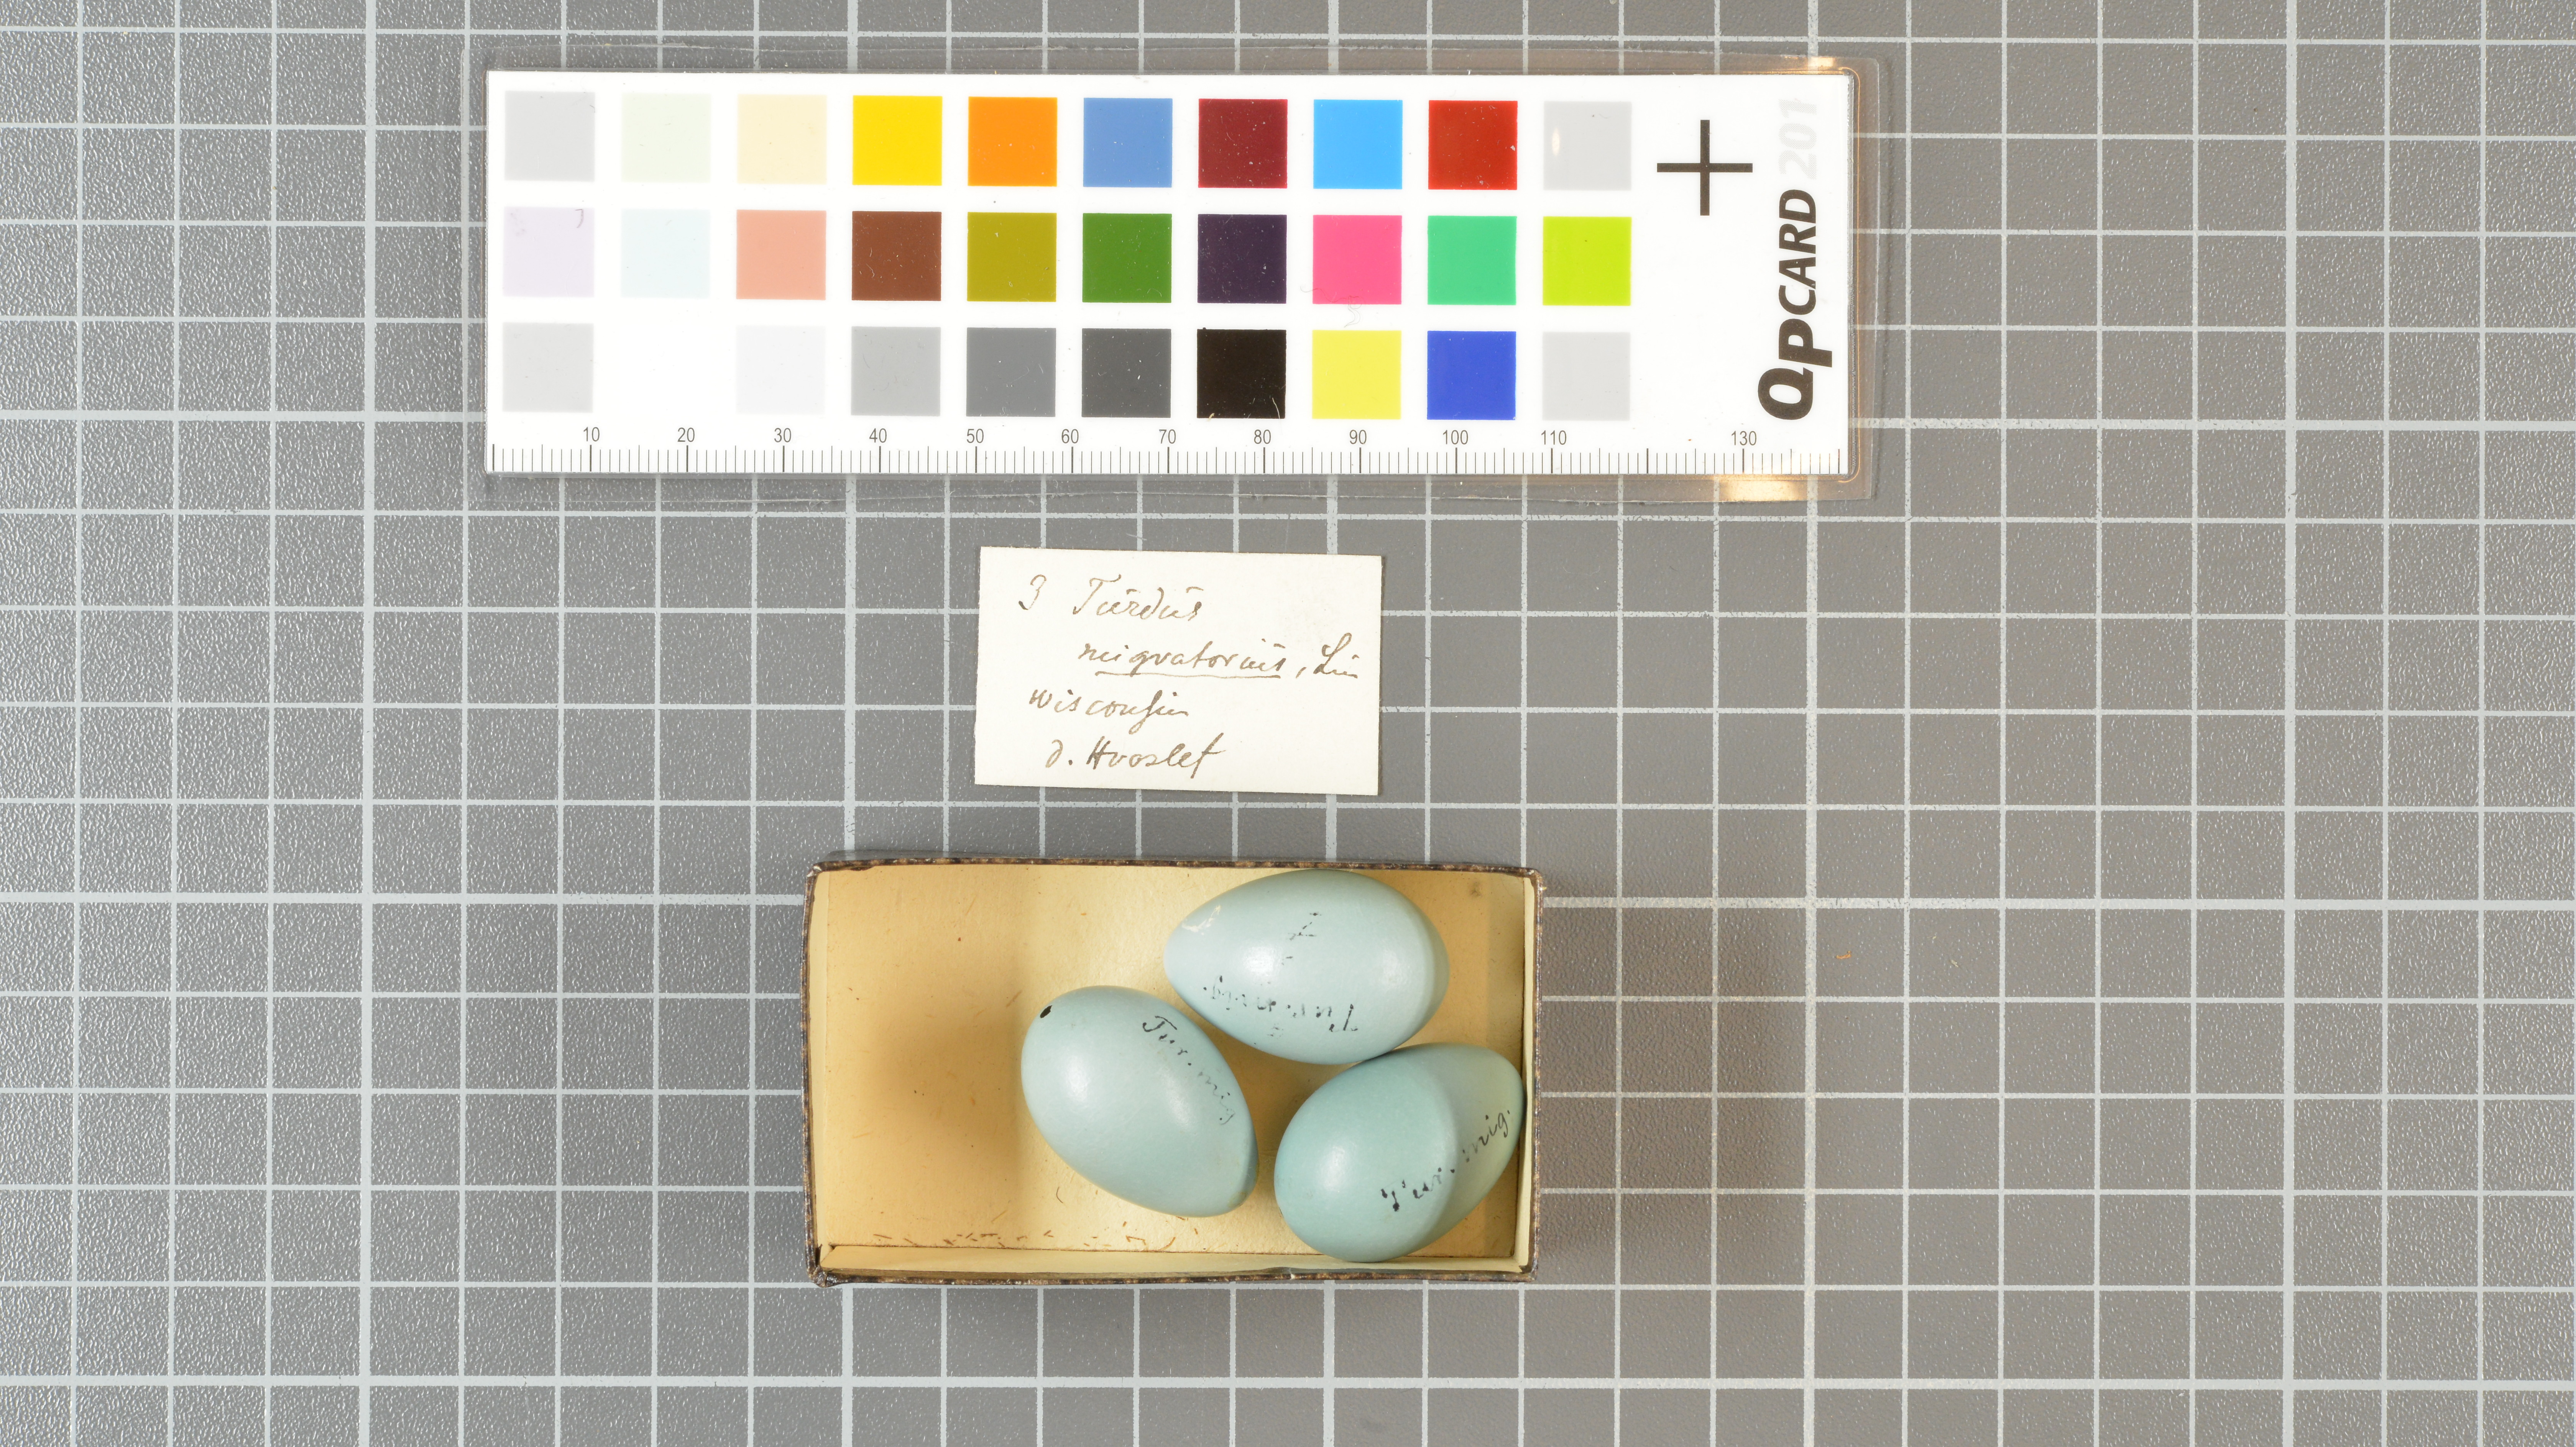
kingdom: Animalia
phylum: Chordata
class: Aves
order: Passeriformes
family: Turdidae
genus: Turdus
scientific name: Turdus migratorius
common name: American robin
